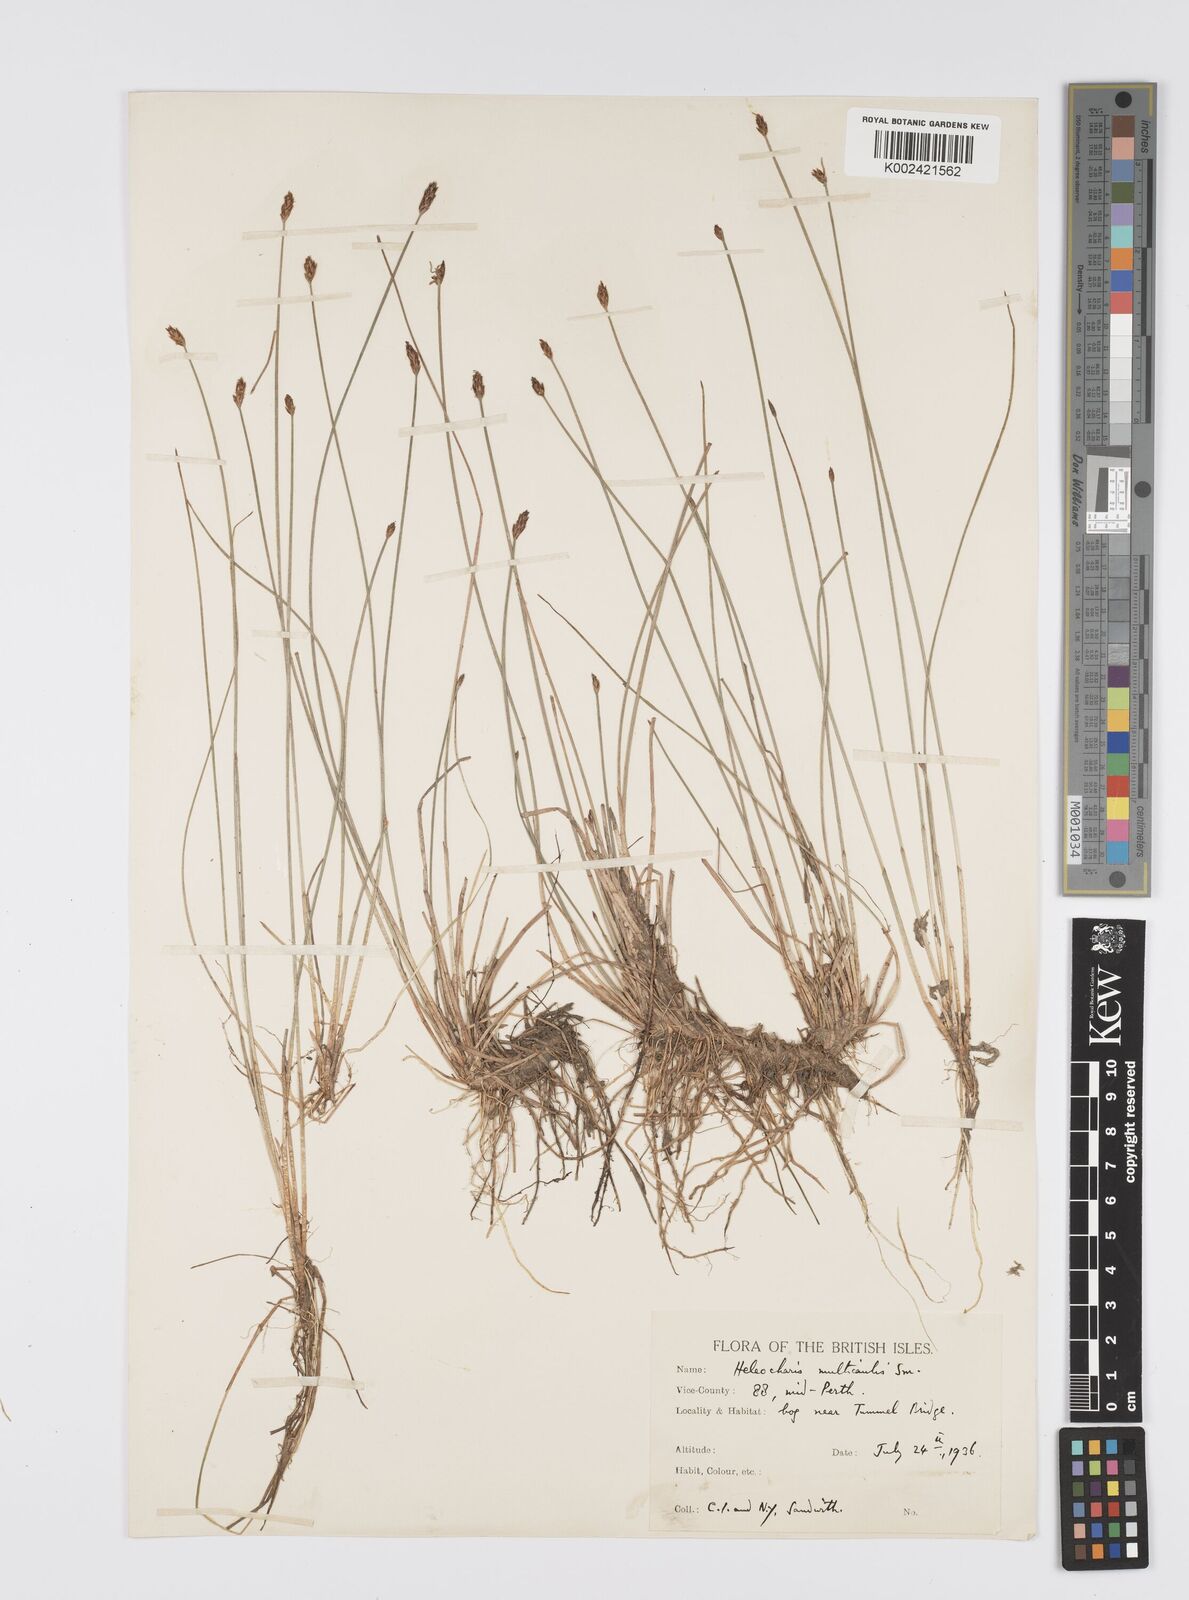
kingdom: Plantae
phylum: Tracheophyta
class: Liliopsida
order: Poales
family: Cyperaceae
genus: Eleocharis
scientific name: Eleocharis multicaulis
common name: Many-stalked spike-rush
